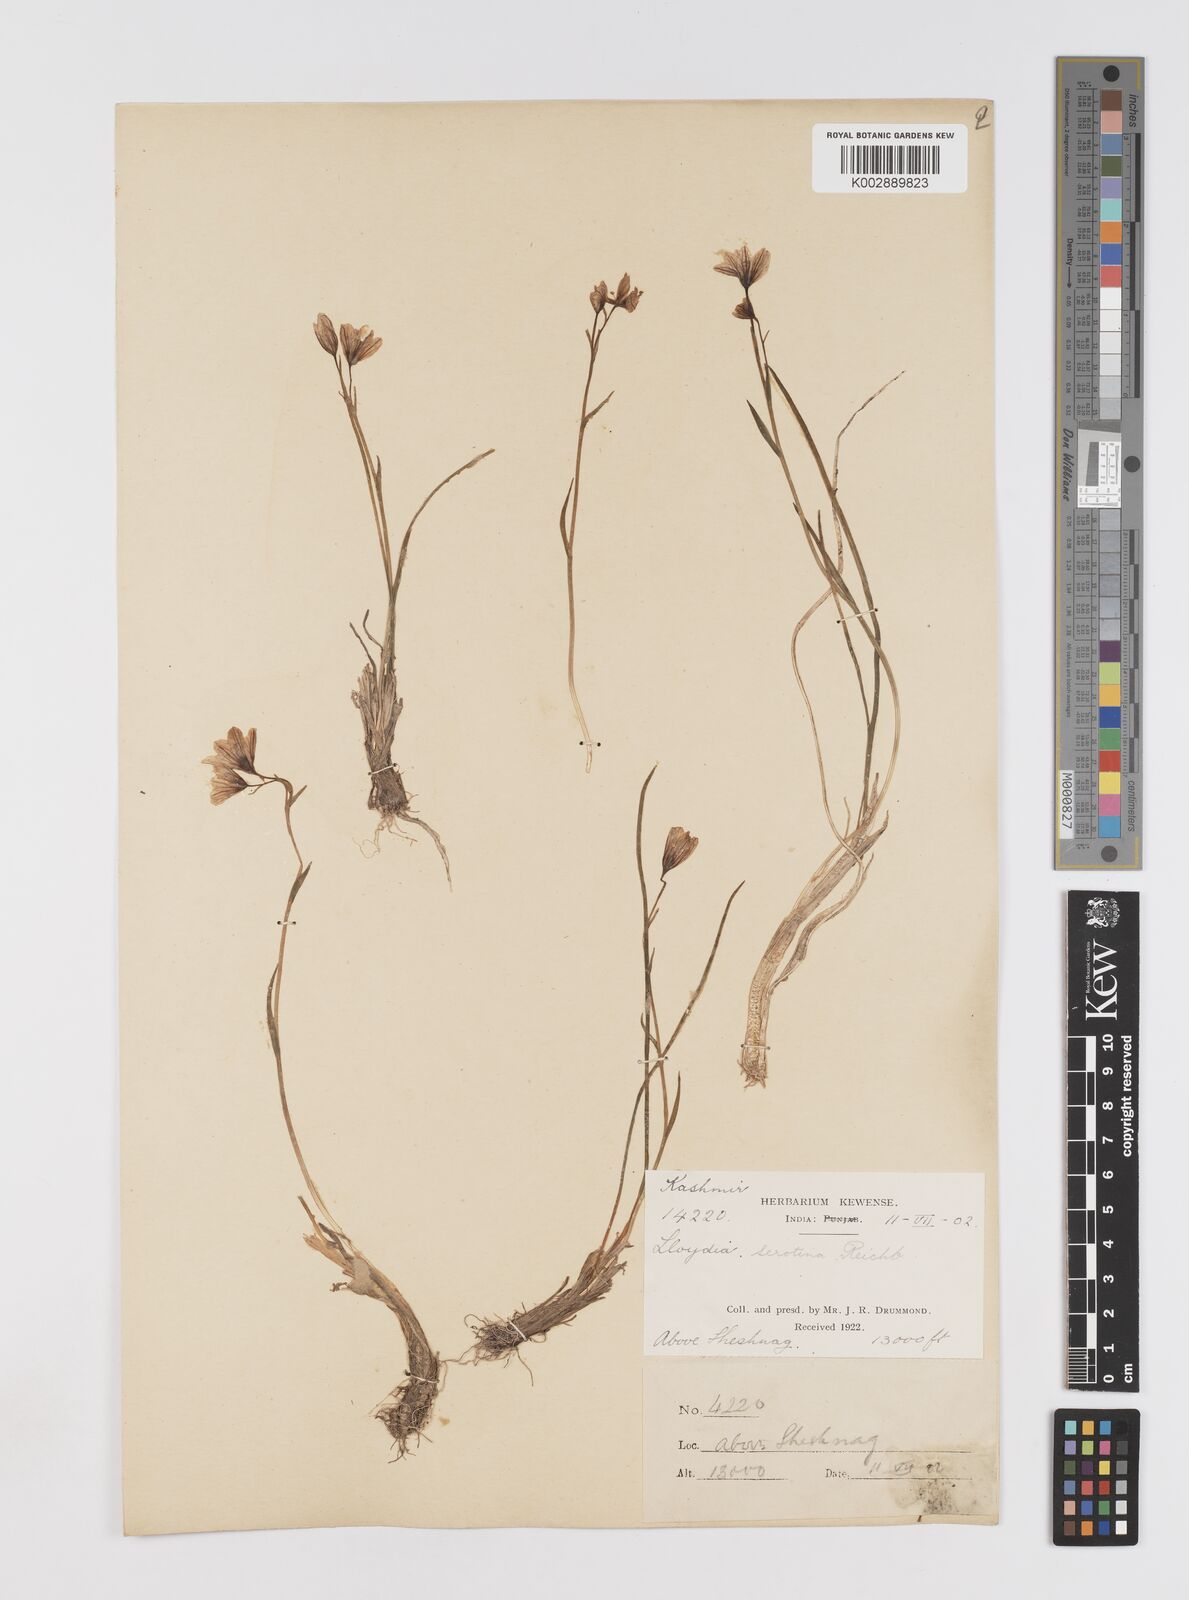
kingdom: Plantae
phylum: Tracheophyta
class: Liliopsida
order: Liliales
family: Liliaceae
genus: Gagea
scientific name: Gagea serotina
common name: Snowdon lily
